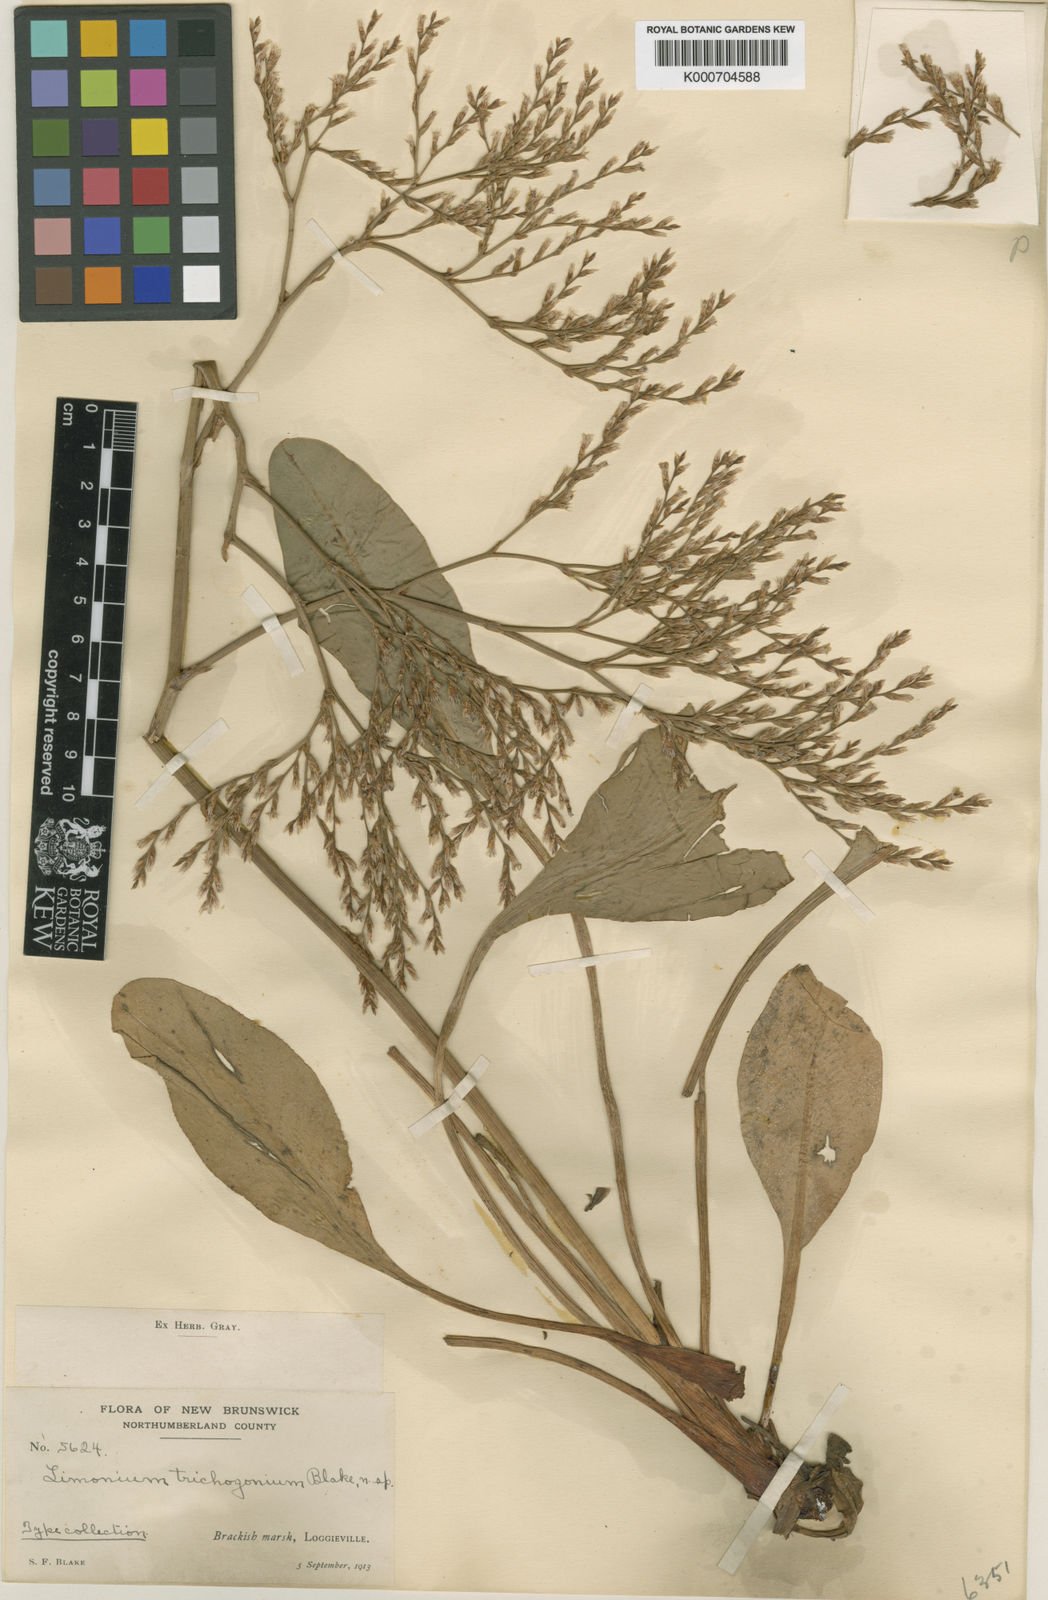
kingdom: Plantae
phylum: Tracheophyta
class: Magnoliopsida
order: Caryophyllales
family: Plumbaginaceae
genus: Limonium
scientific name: Limonium carolinianum
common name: Carolina sea lavender
